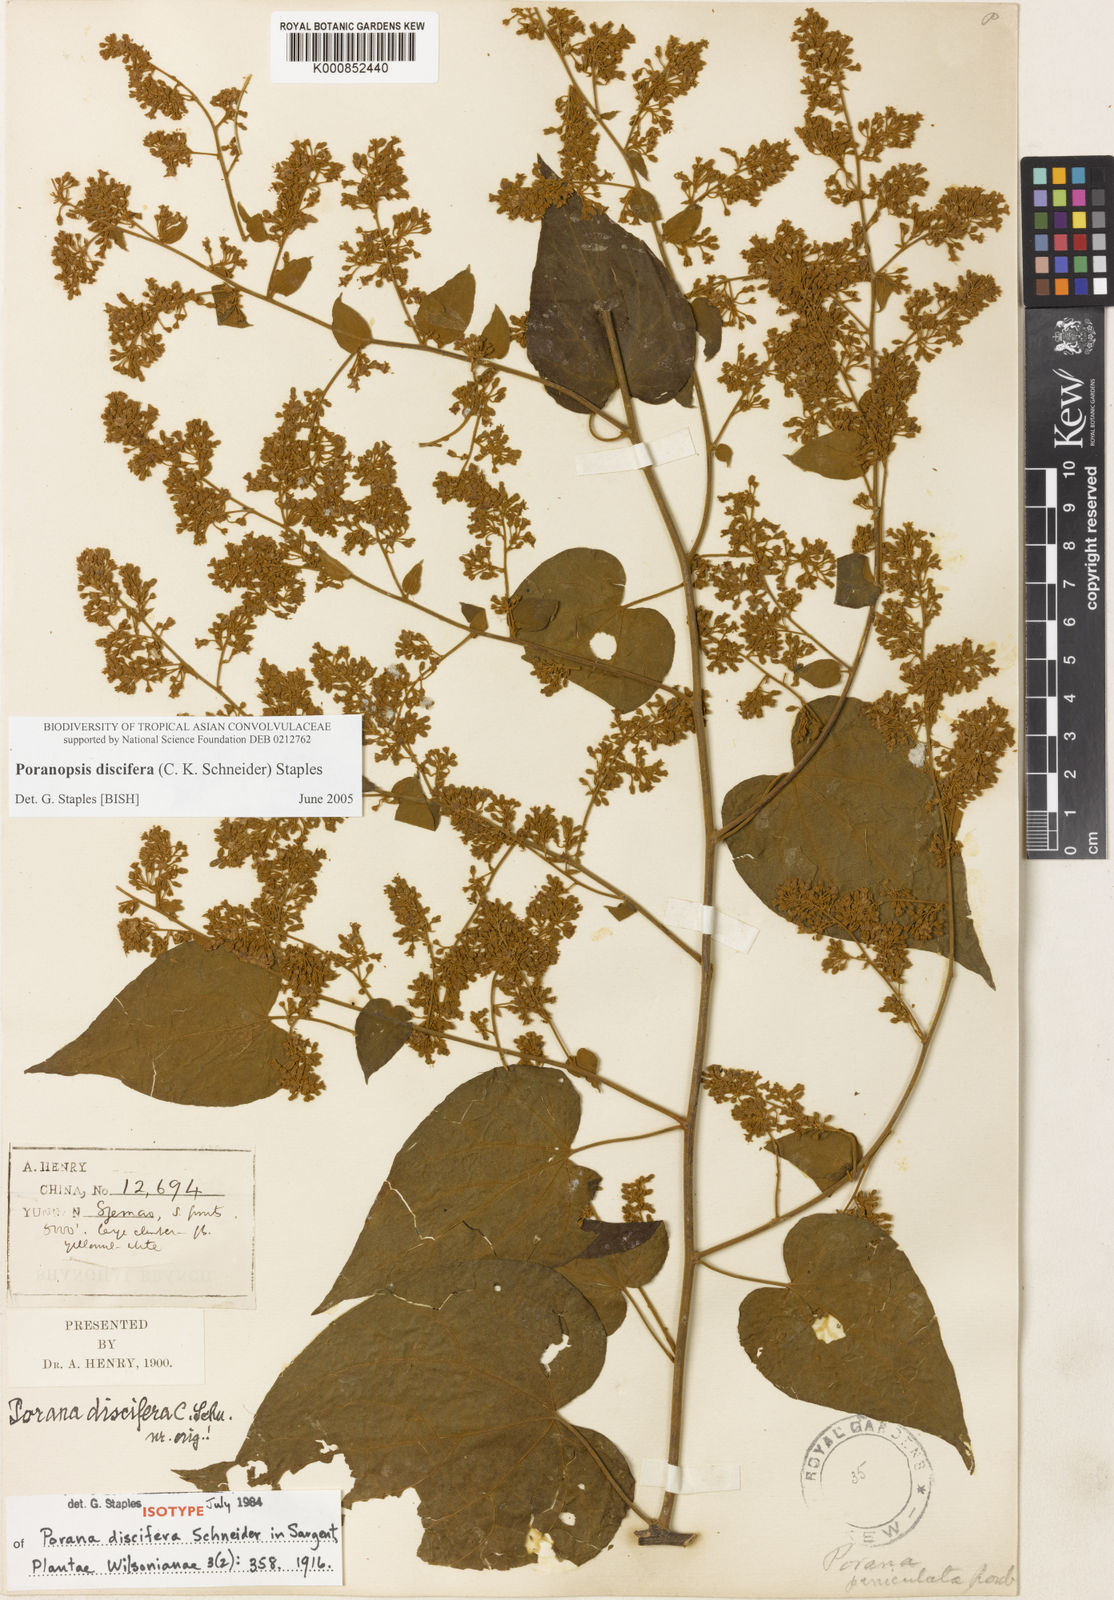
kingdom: Plantae
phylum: Tracheophyta
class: Magnoliopsida
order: Solanales
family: Convolvulaceae
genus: Poranopsis
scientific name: Poranopsis discifera
